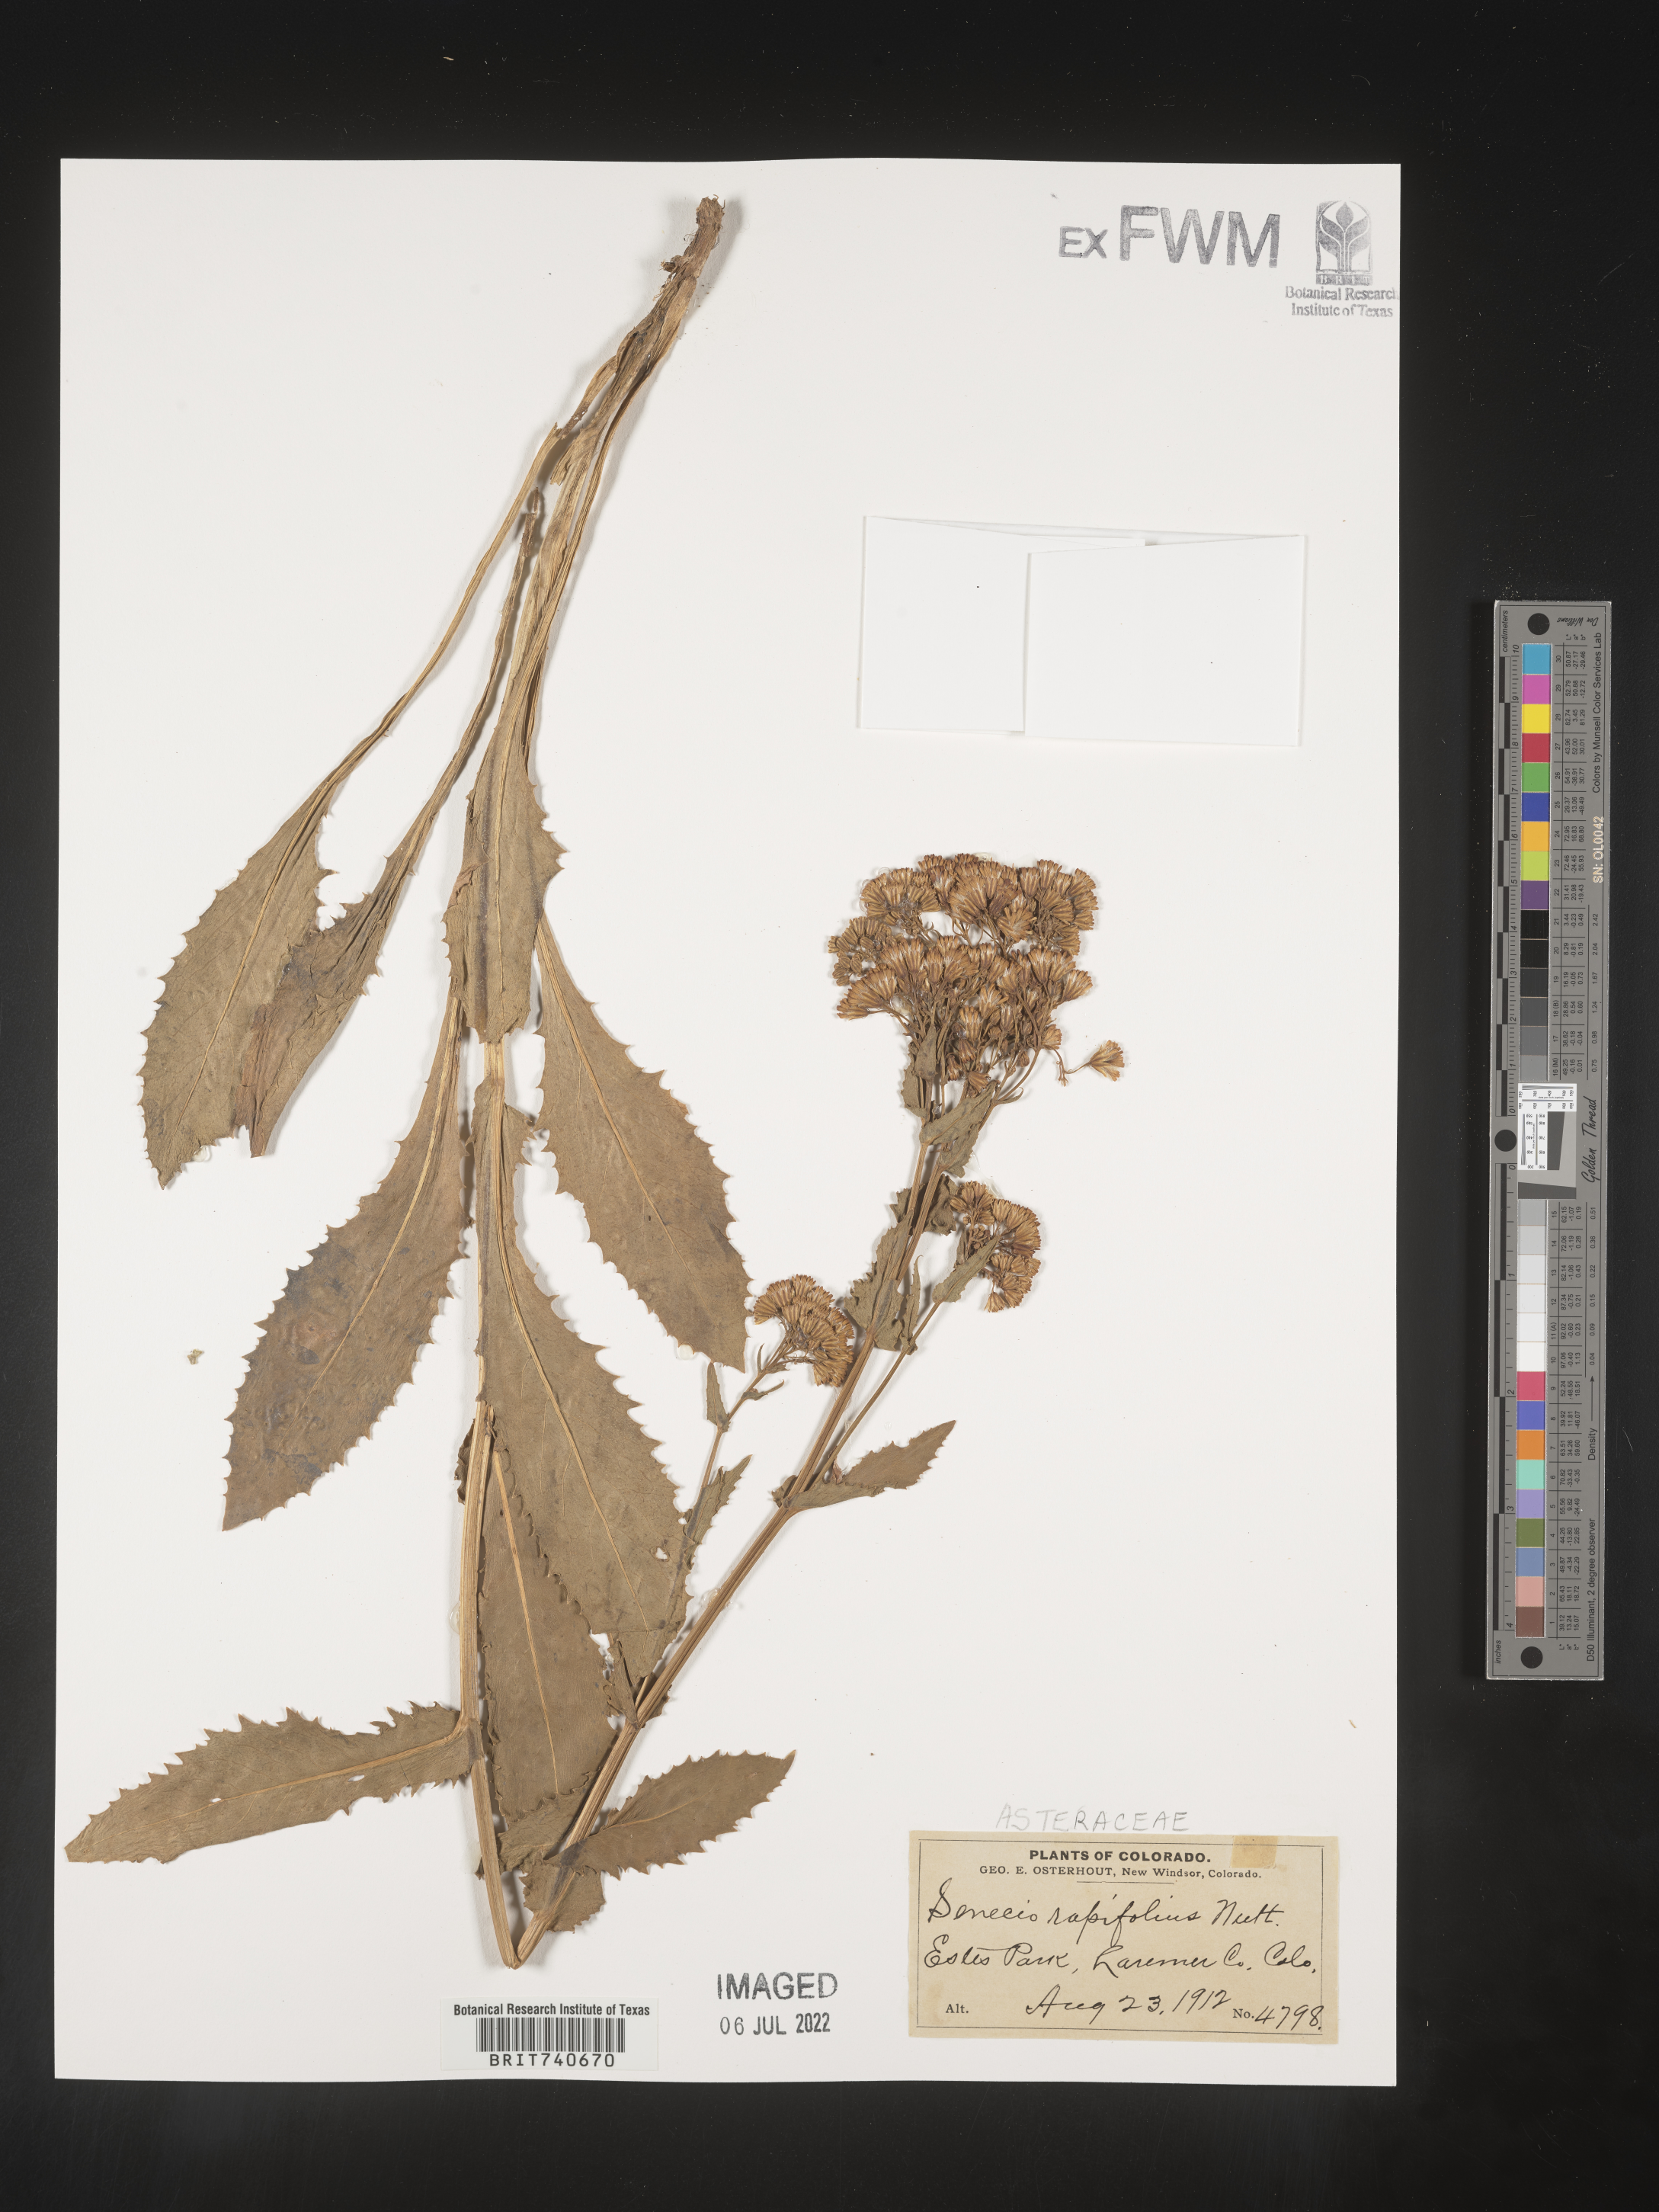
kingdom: Plantae
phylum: Tracheophyta
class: Magnoliopsida
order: Asterales
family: Asteraceae
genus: Senecio
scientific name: Senecio rapifolius
